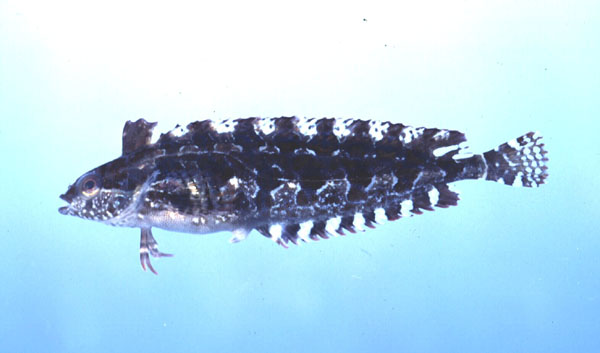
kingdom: Animalia
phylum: Chordata
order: Perciformes
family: Clinidae
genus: Pavoclinus
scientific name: Pavoclinus graminis
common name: Grass klipfish
